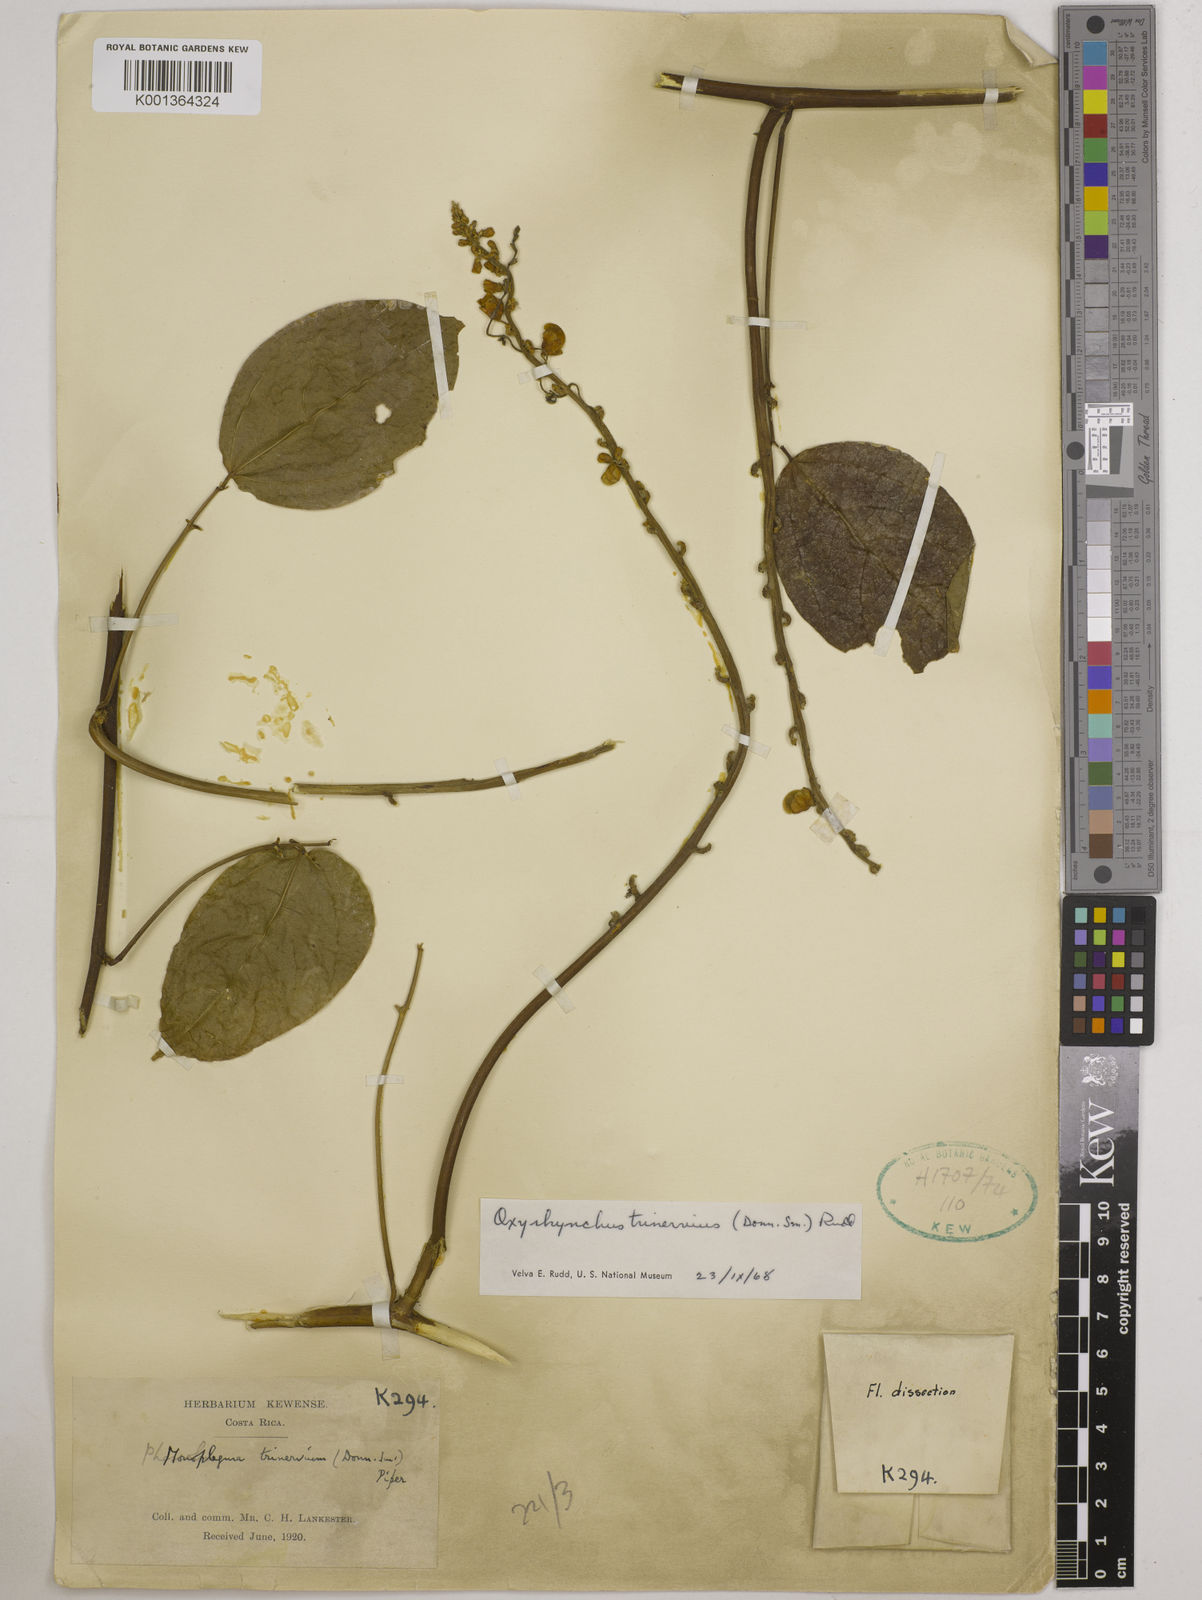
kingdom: Plantae
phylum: Tracheophyta
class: Magnoliopsida
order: Fabales
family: Fabaceae
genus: Oxyrhynchus
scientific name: Oxyrhynchus trinervius
